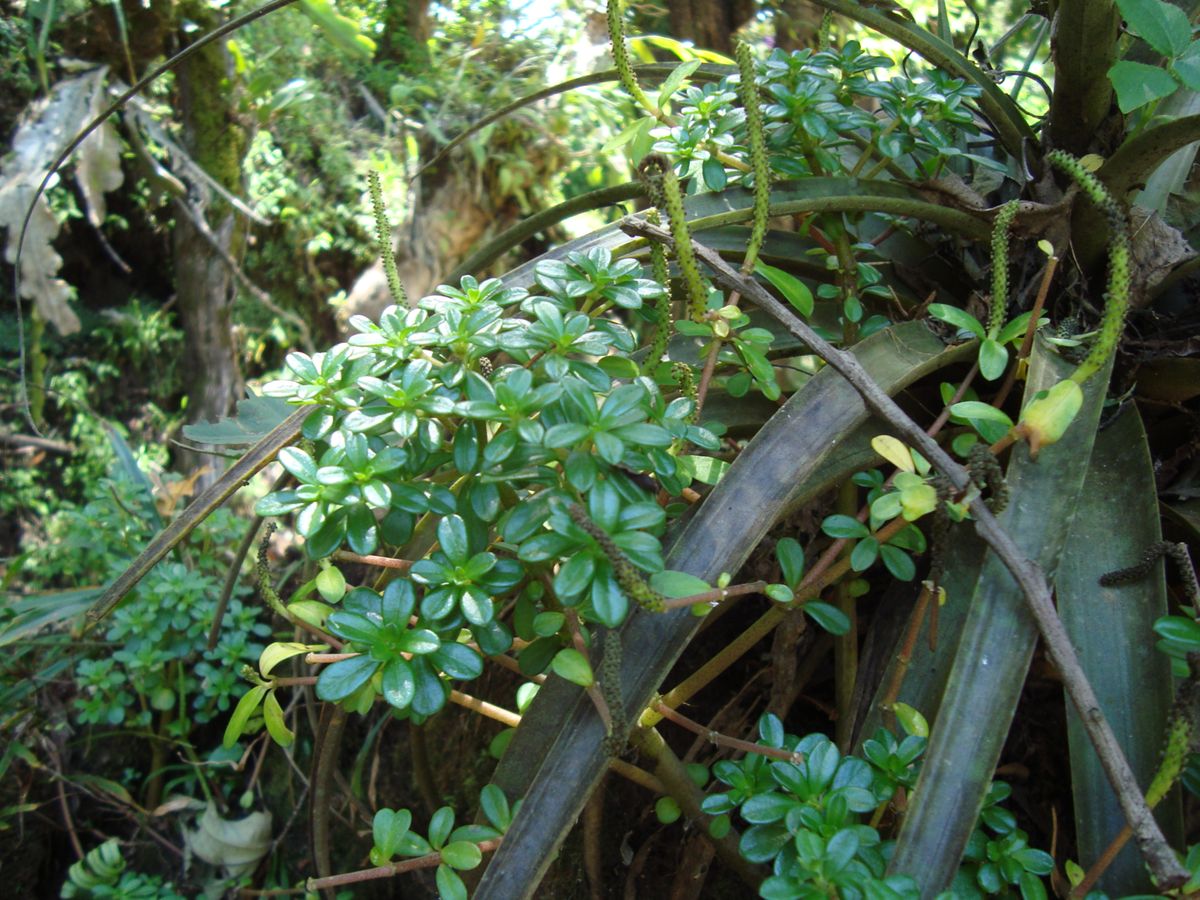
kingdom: Plantae
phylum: Tracheophyta
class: Magnoliopsida
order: Piperales
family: Piperaceae
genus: Peperomia
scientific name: Peperomia
